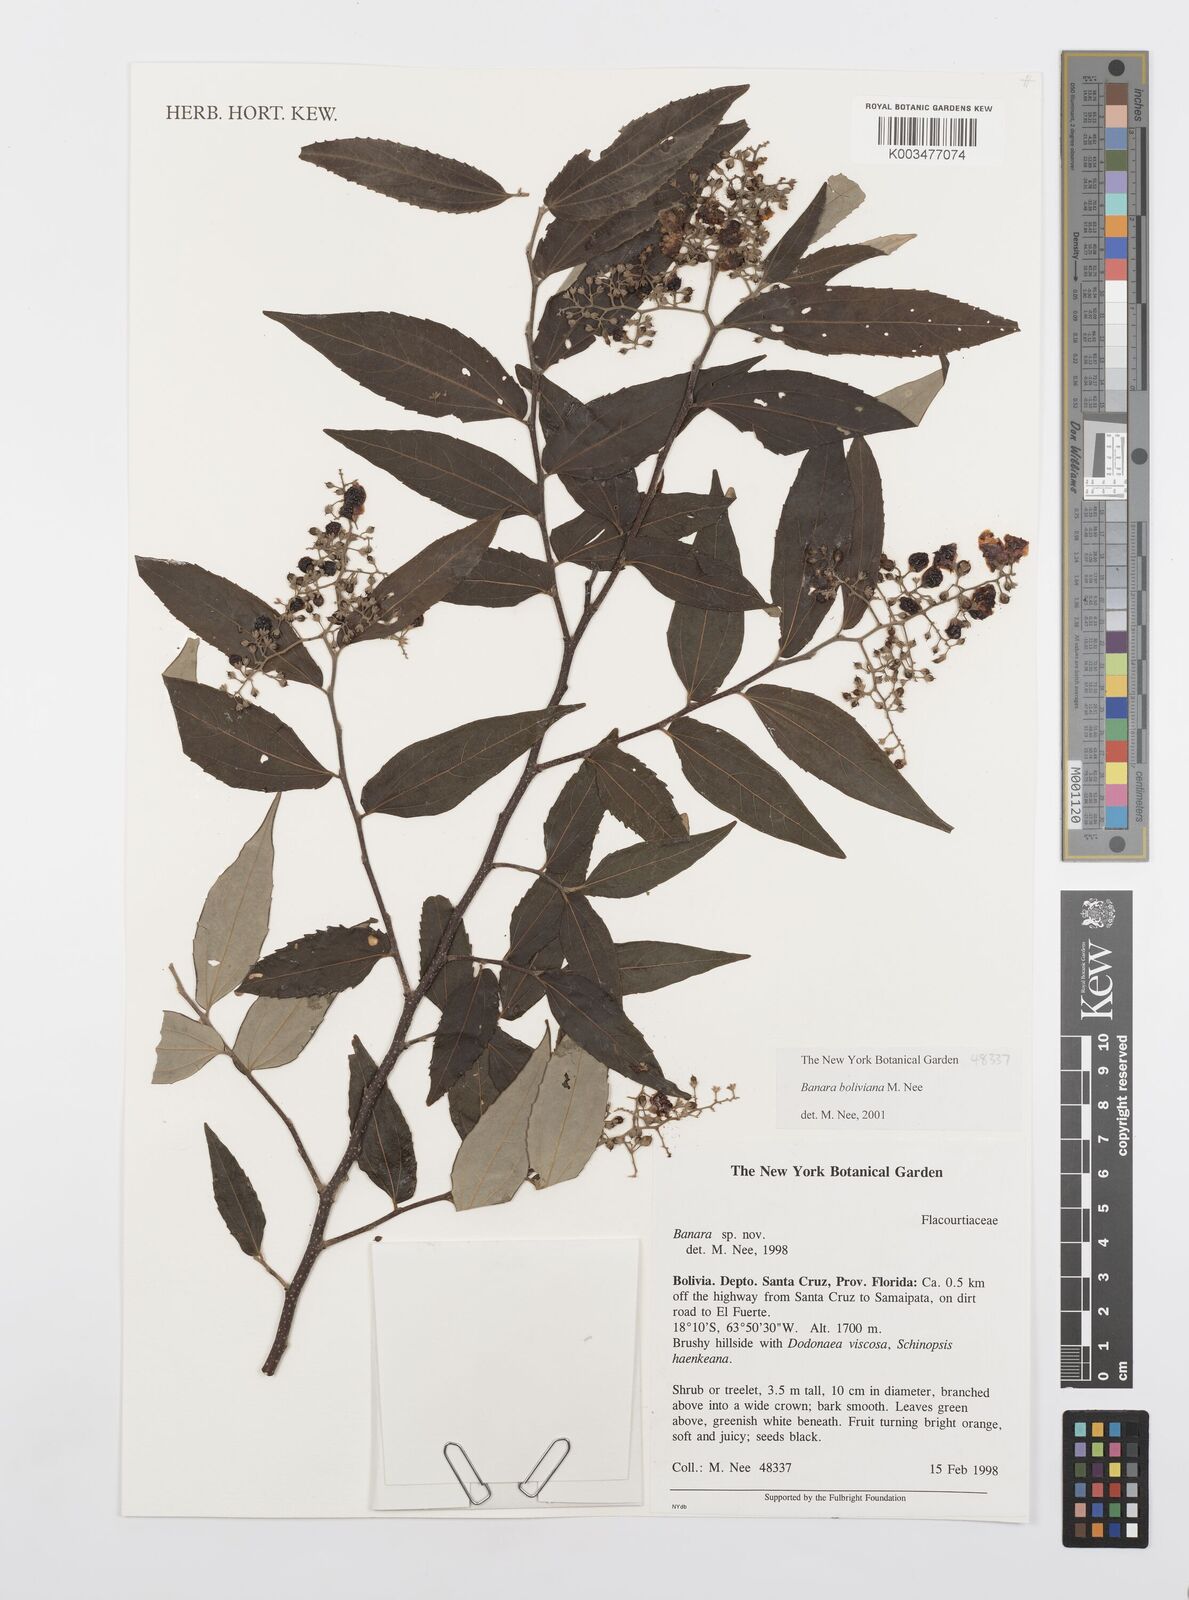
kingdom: Plantae
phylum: Tracheophyta
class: Magnoliopsida
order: Malpighiales
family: Salicaceae
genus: Banara
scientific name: Banara boliviana
